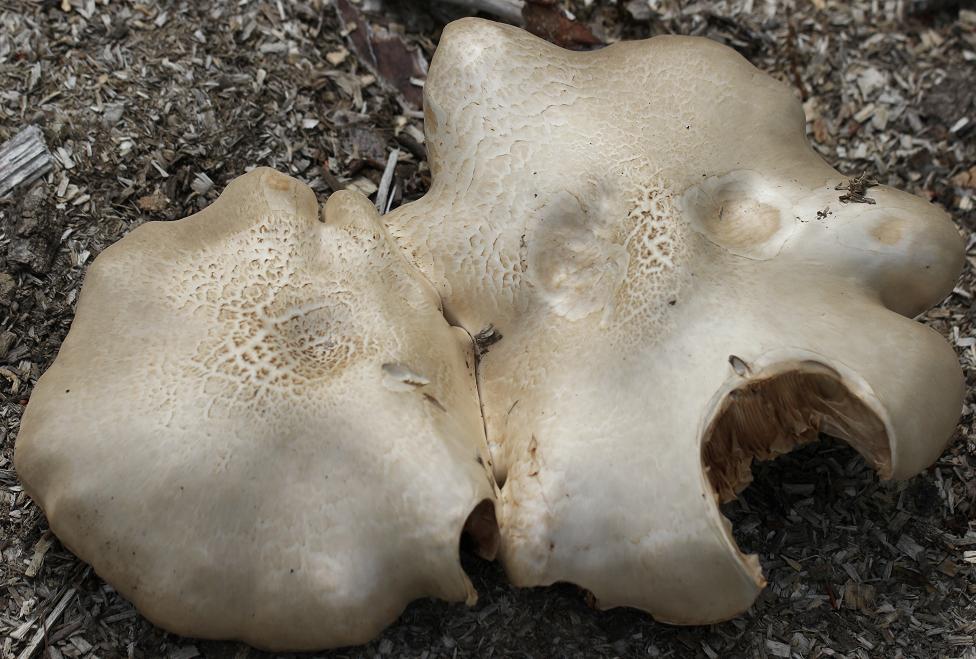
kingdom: Fungi
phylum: Basidiomycota
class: Agaricomycetes
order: Agaricales
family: Pluteaceae
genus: Pluteus
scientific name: Pluteus petasatus
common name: savsmulds-skærmhat
